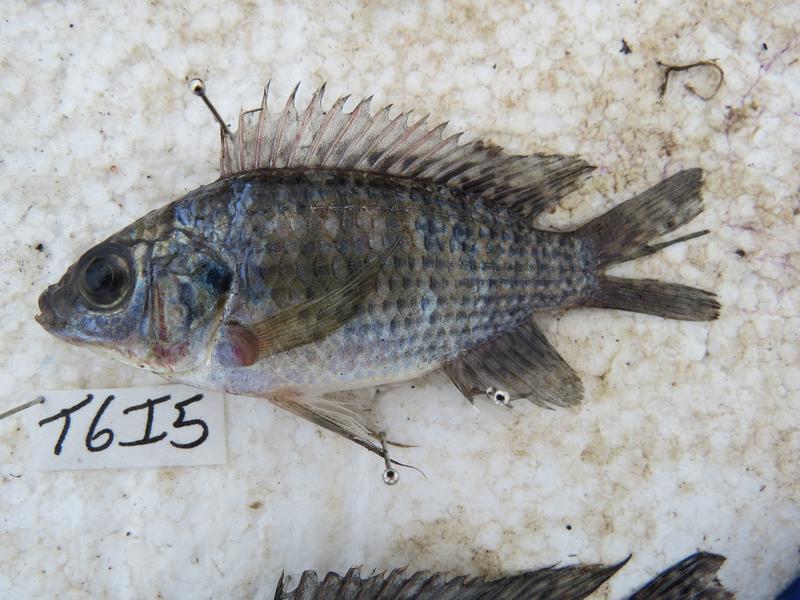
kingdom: Animalia
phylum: Chordata
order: Perciformes
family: Cichlidae
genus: Oreochromis
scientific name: Oreochromis leucostictus
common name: Blue spotted tilapia
